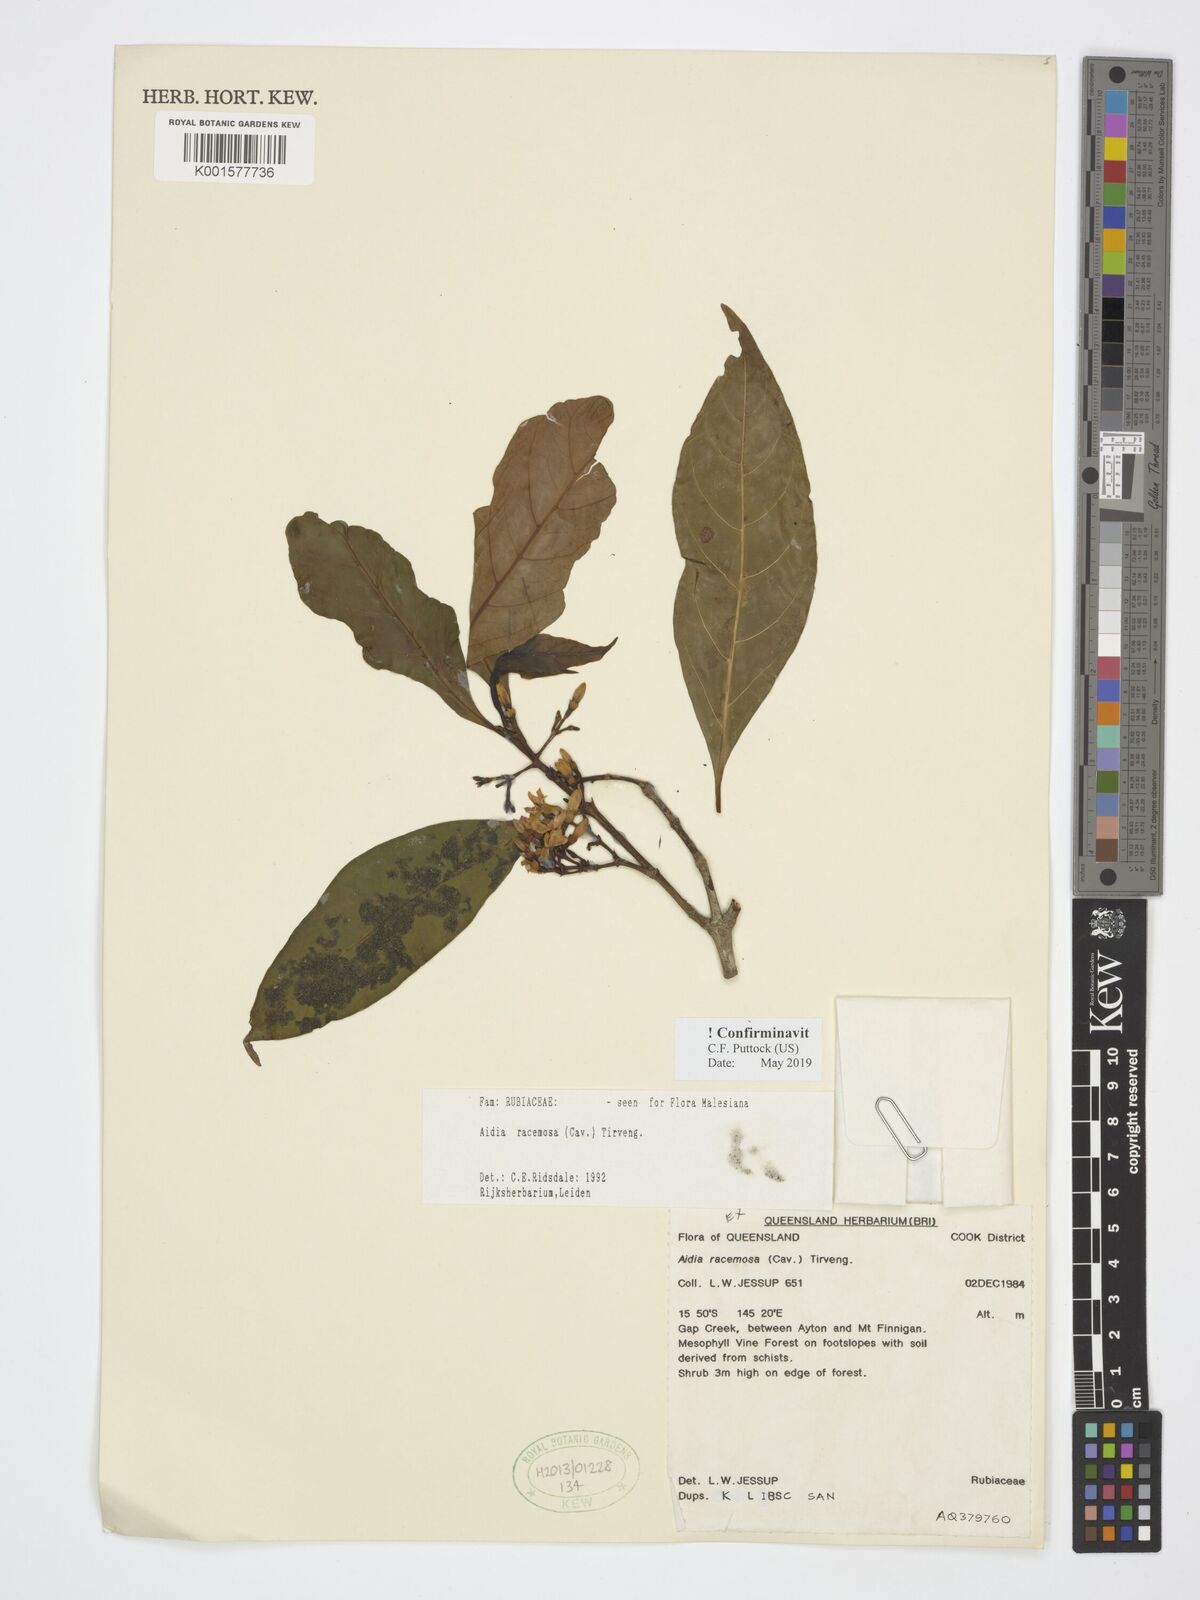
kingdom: Plantae
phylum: Tracheophyta
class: Magnoliopsida
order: Gentianales
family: Rubiaceae
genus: Aidia
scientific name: Aidia racemosa
